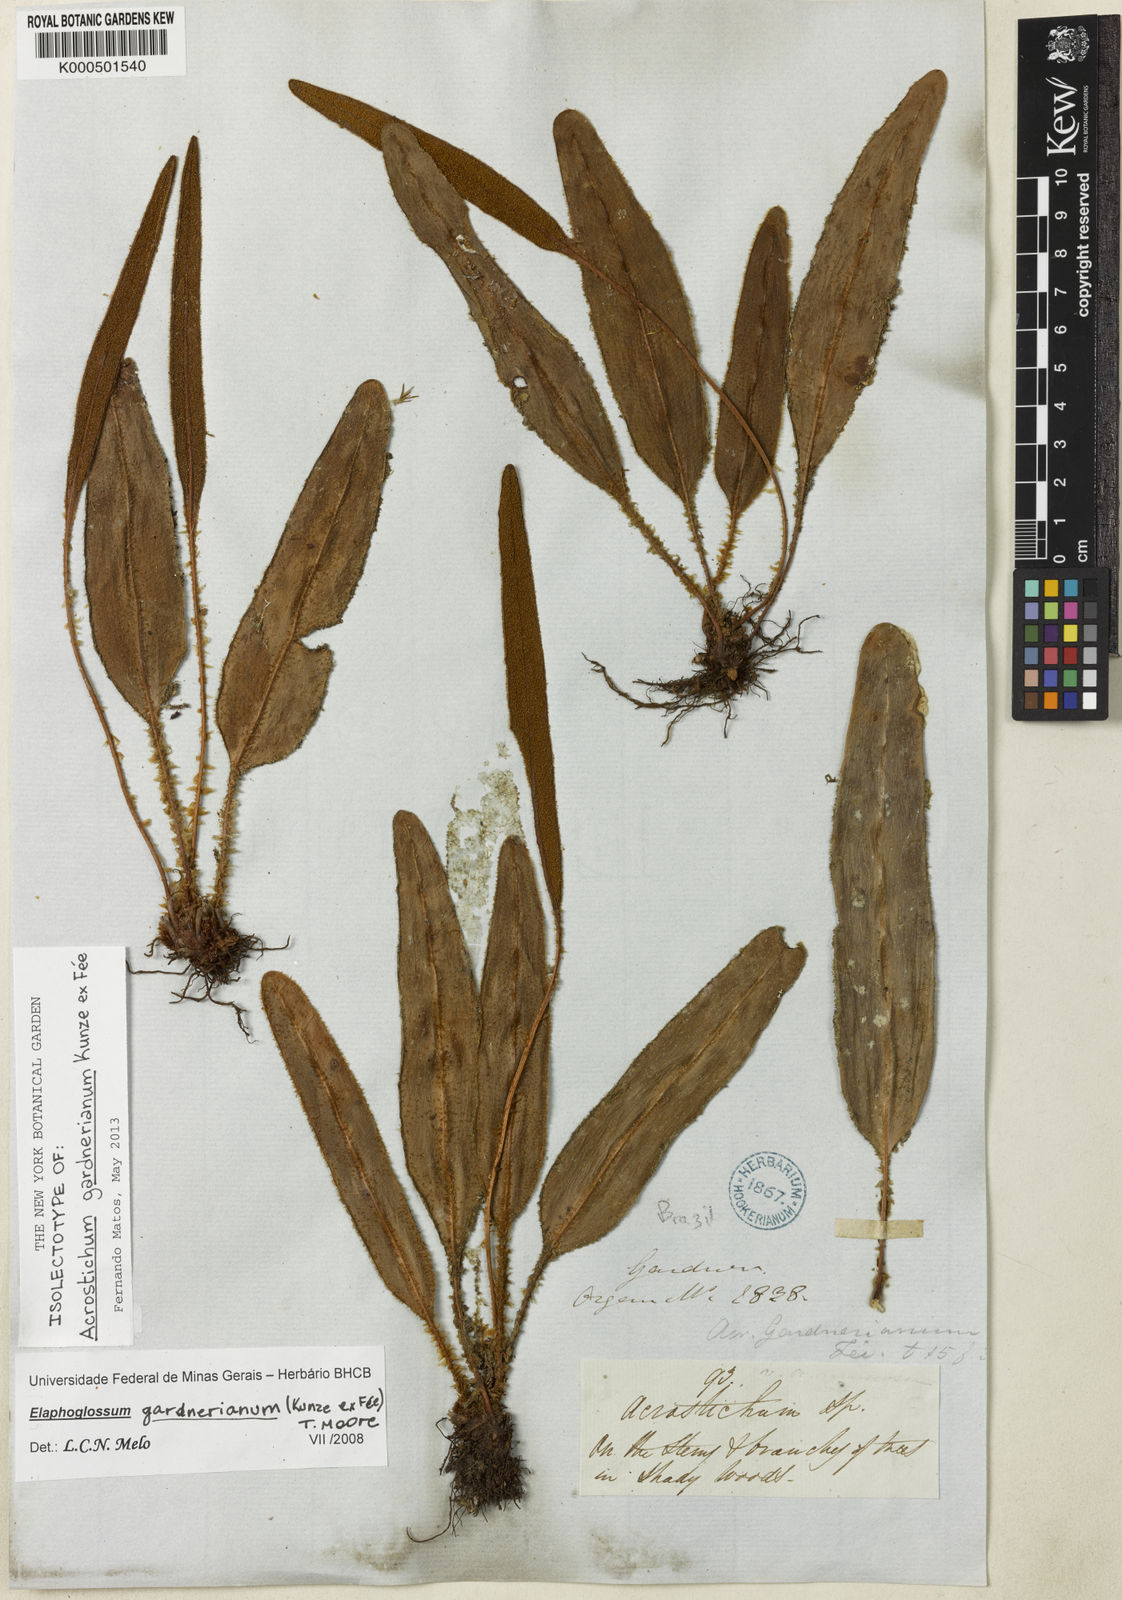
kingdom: Plantae
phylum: Tracheophyta
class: Polypodiopsida
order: Polypodiales
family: Dryopteridaceae
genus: Elaphoglossum
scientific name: Elaphoglossum
